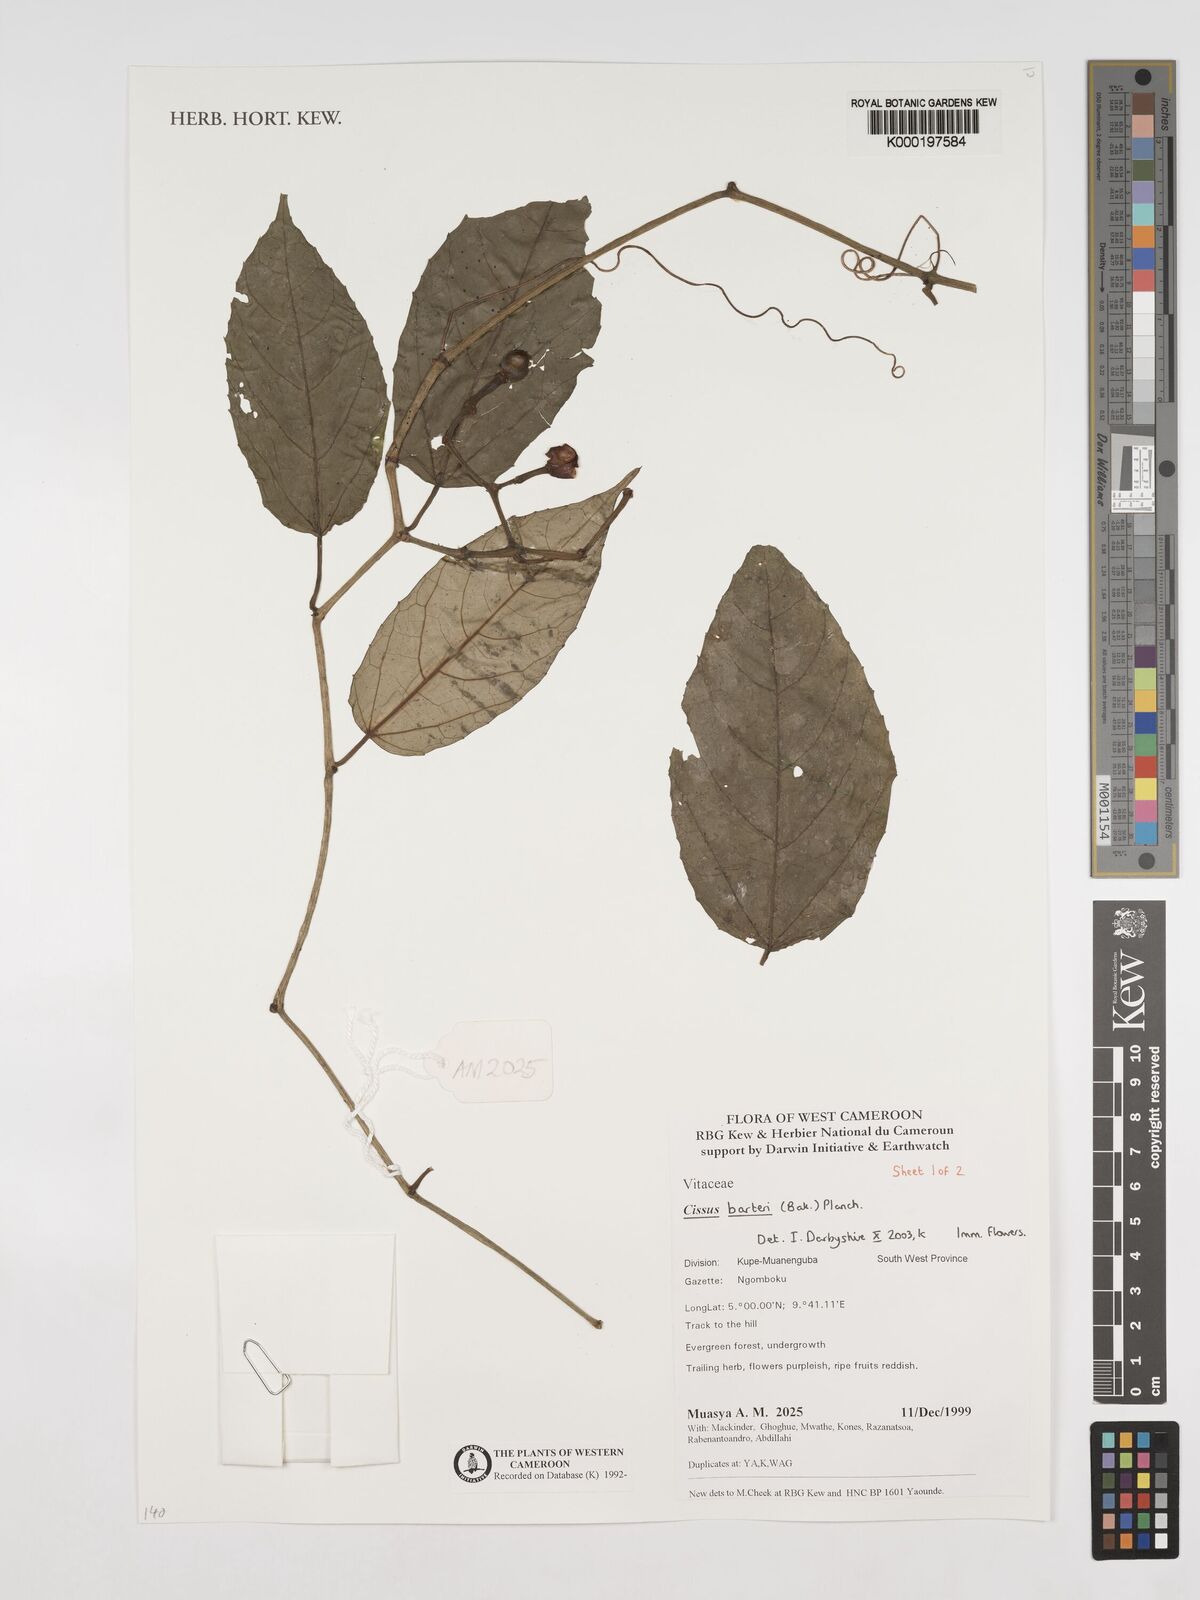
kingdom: Plantae
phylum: Tracheophyta
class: Magnoliopsida
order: Vitales
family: Vitaceae
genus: Cissus
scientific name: Cissus barteri
